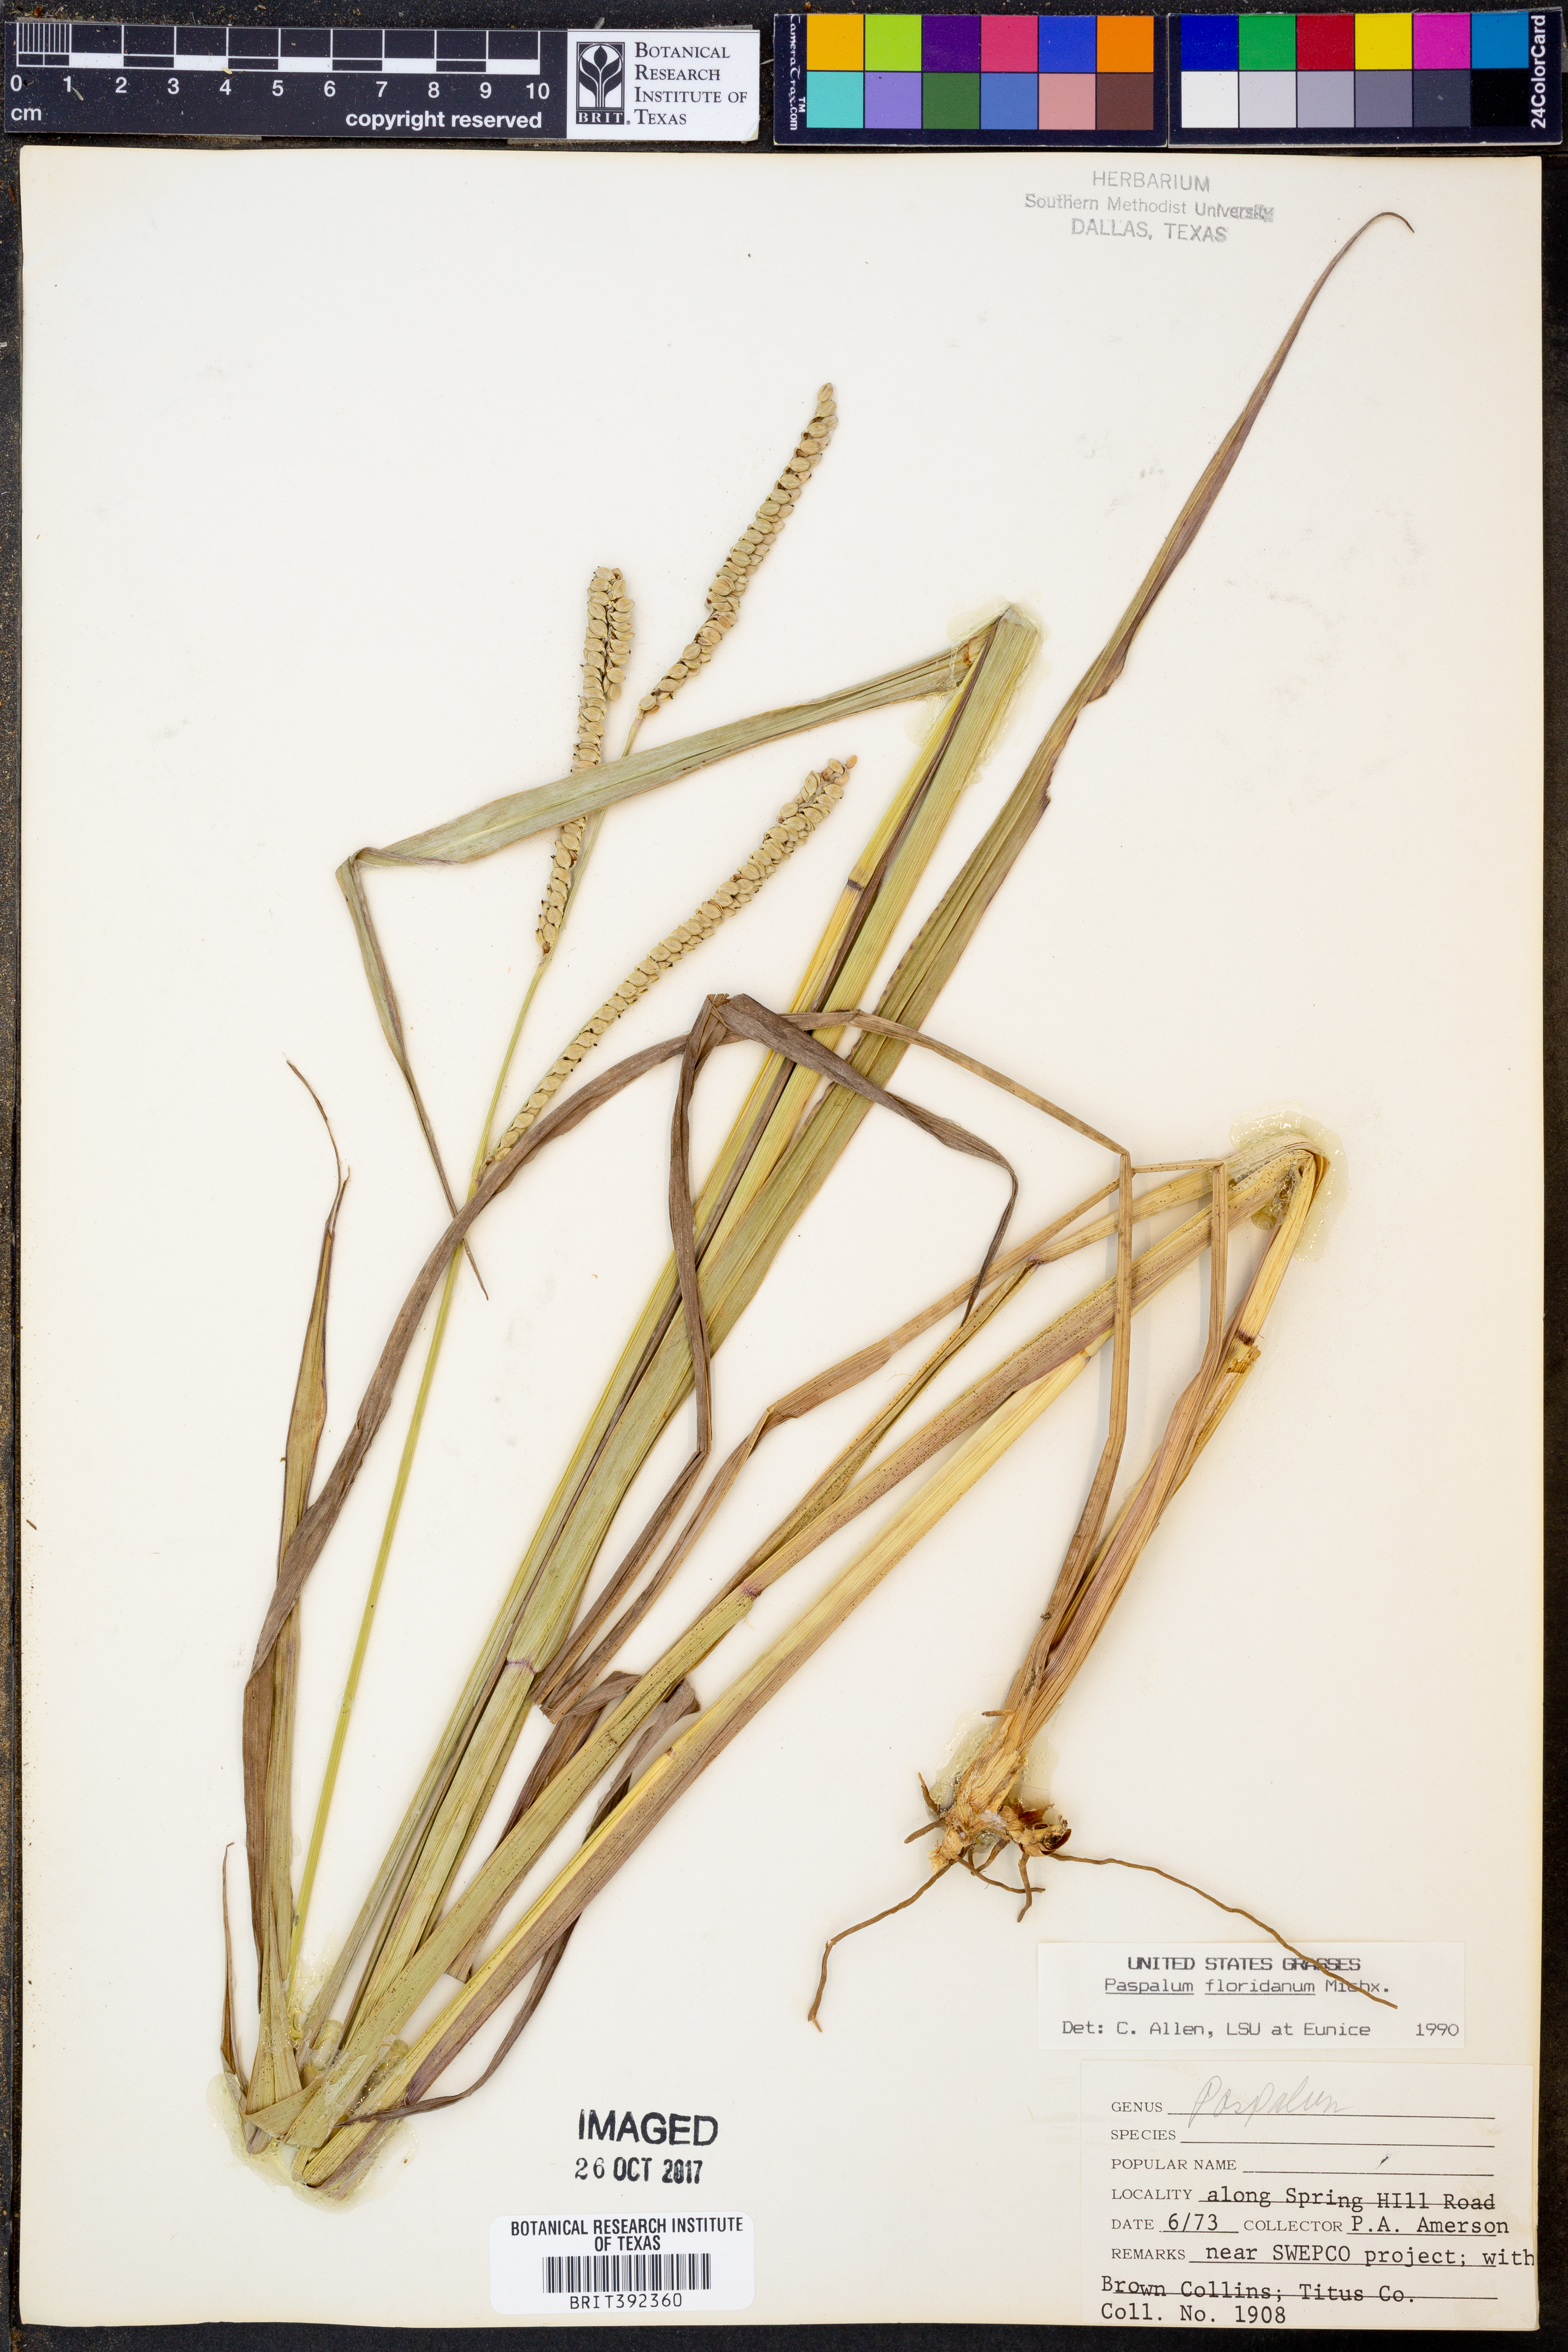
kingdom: Plantae
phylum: Tracheophyta
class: Liliopsida
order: Poales
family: Poaceae
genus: Paspalum
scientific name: Paspalum floridanum
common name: Florida paspalum
